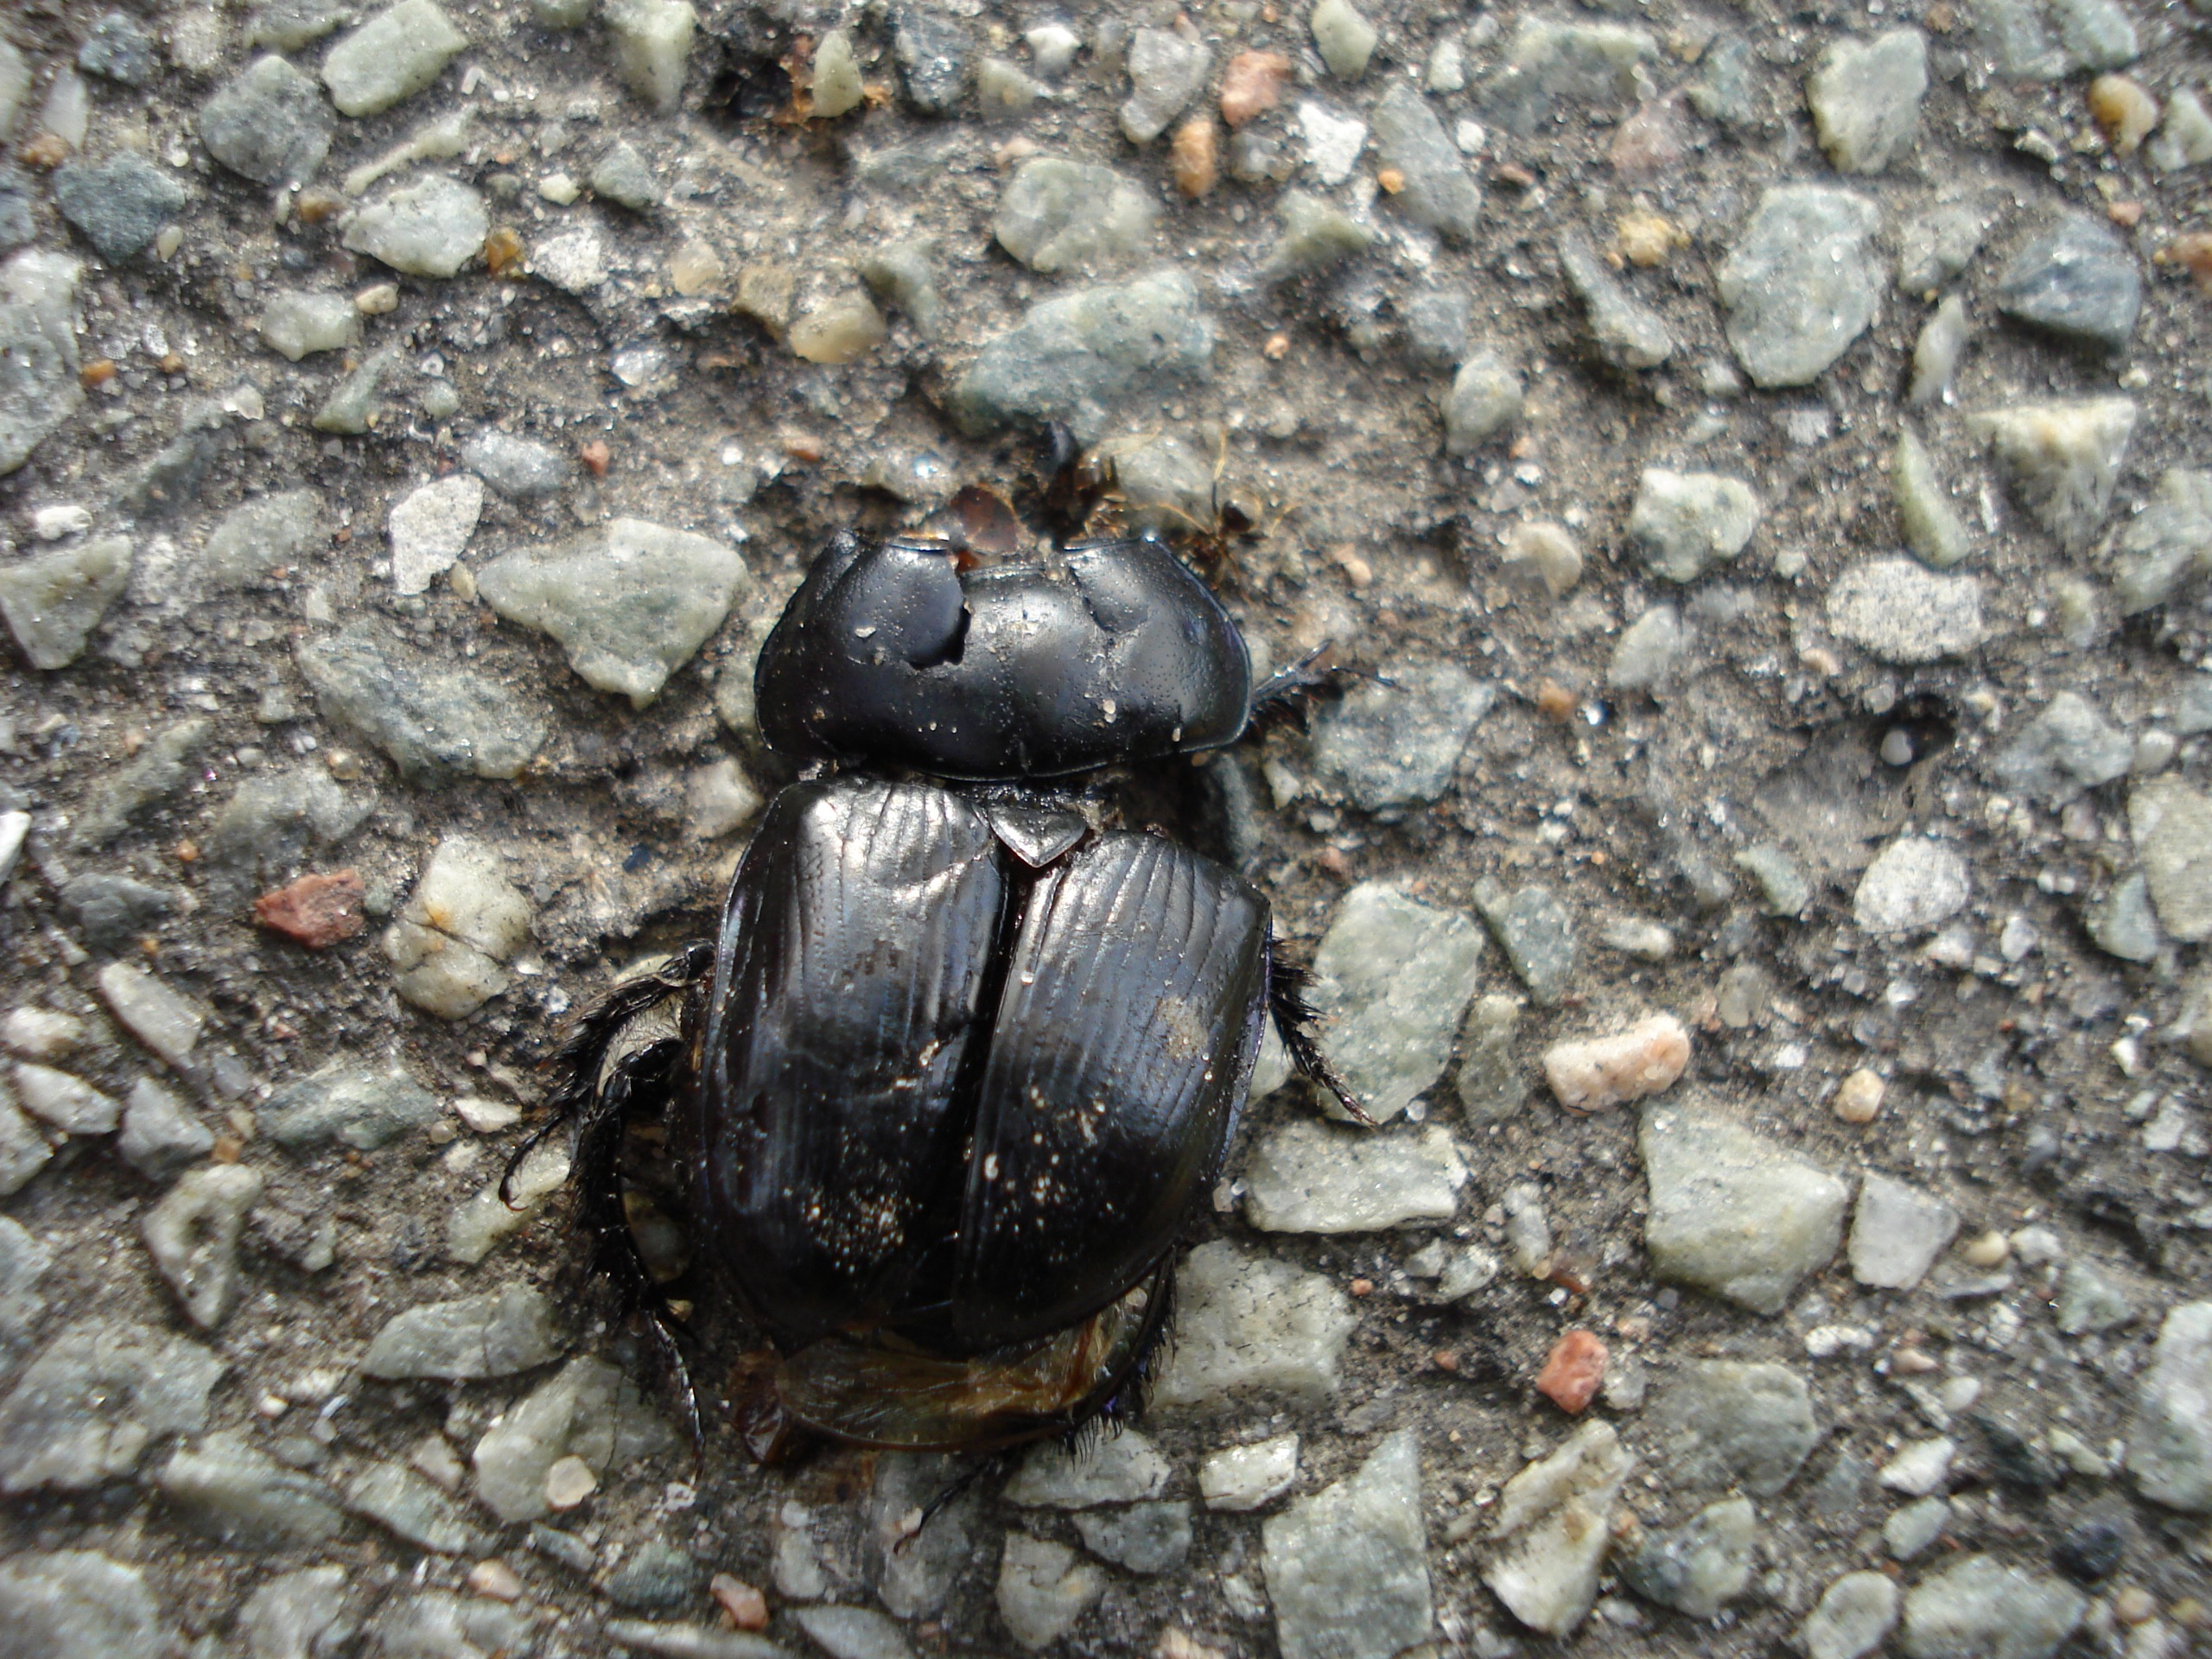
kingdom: Animalia
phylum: Arthropoda
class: Insecta
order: Coleoptera
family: Geotrupidae
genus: Geotrupes
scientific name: Geotrupes spiniger
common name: Markskarnbasse
